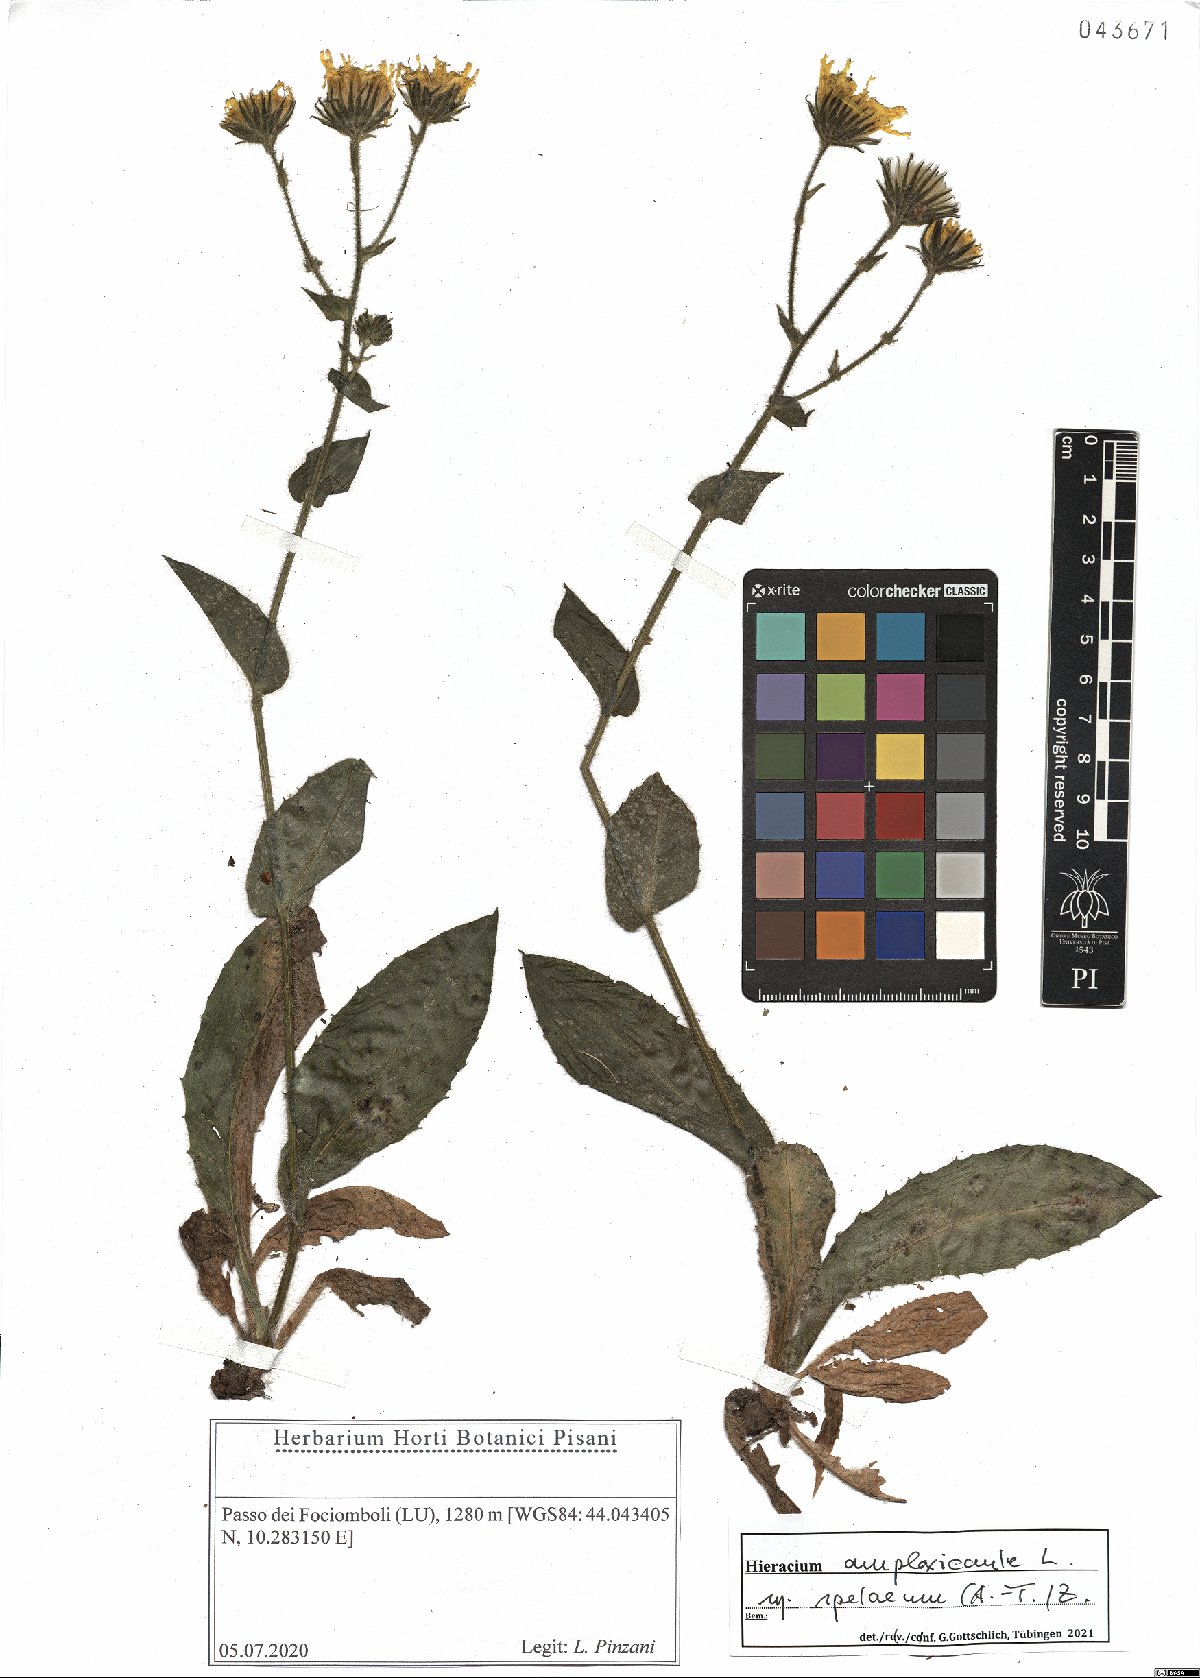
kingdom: Plantae
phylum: Tracheophyta
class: Magnoliopsida
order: Asterales
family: Asteraceae
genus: Hieracium
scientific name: Hieracium pulmonarioides
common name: Wall hawkweed
